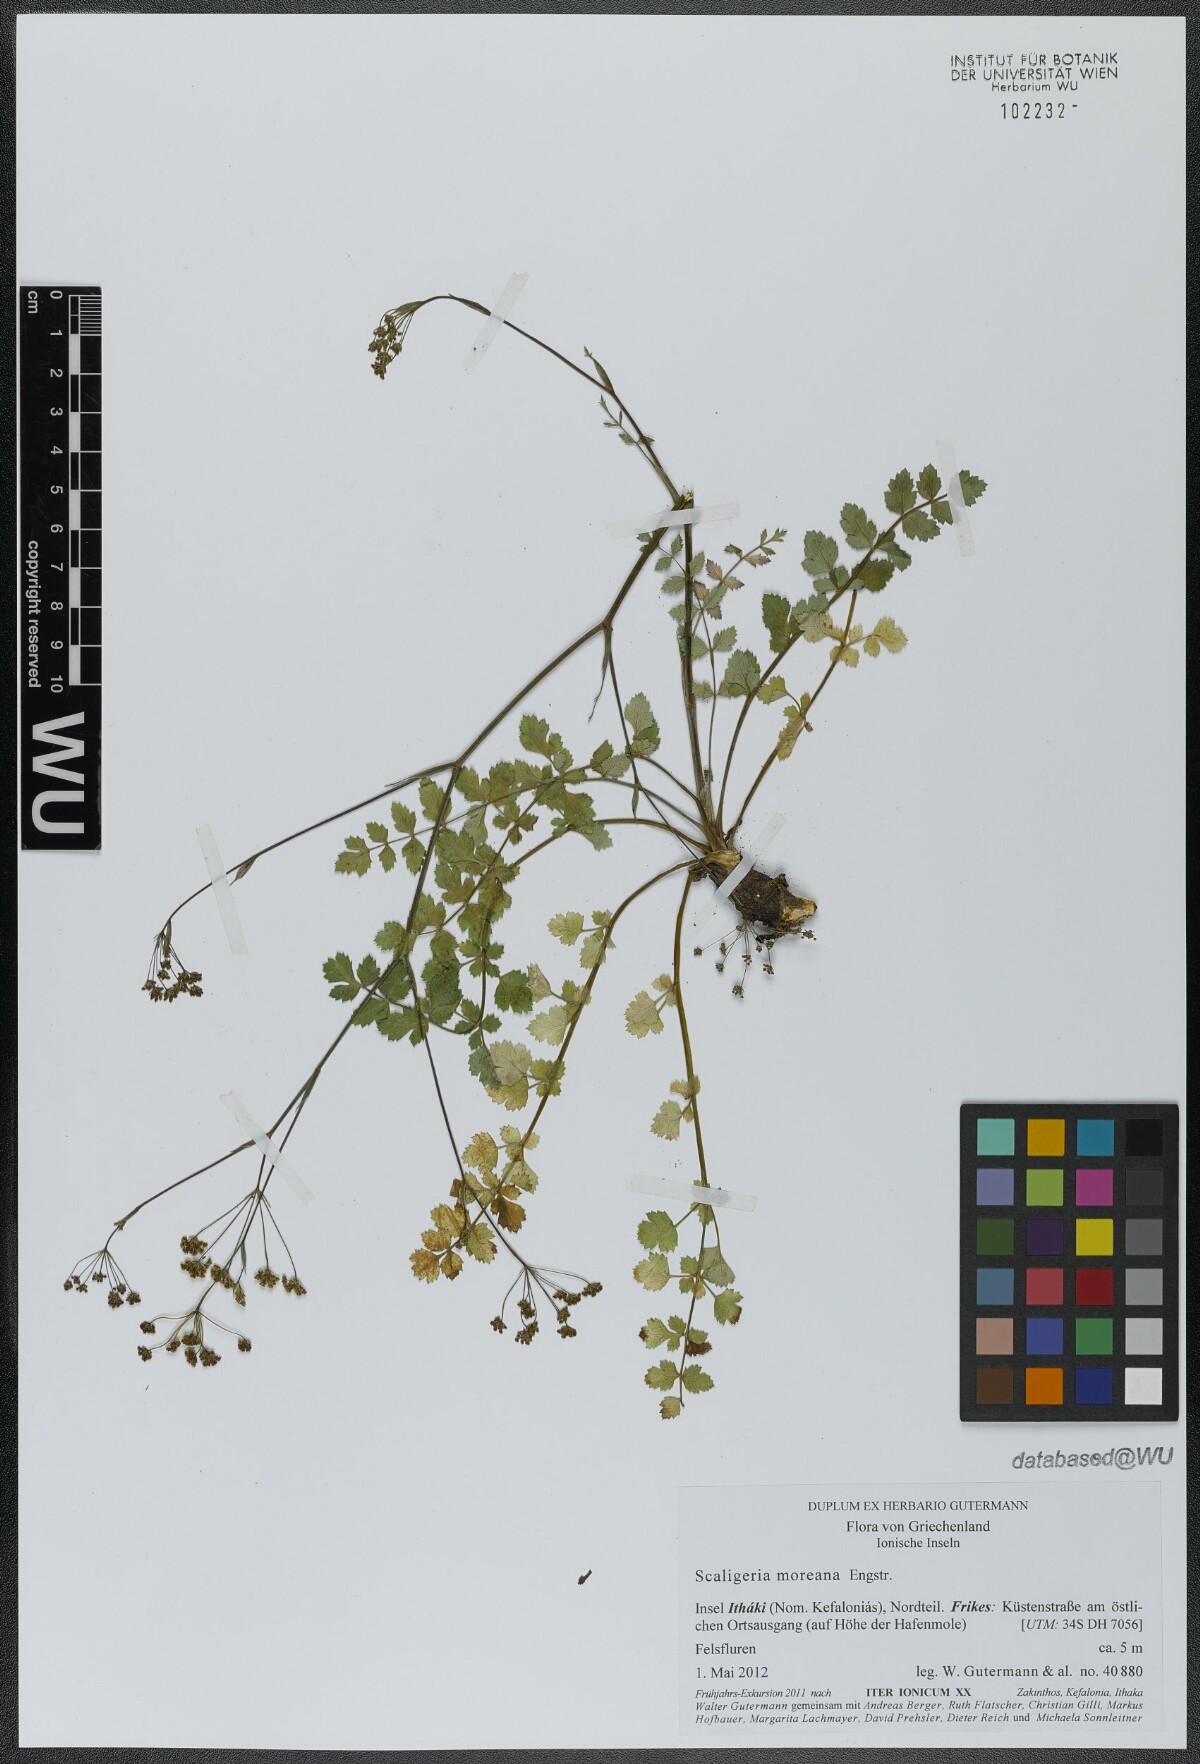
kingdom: Plantae
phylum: Tracheophyta
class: Magnoliopsida
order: Apiales
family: Apiaceae
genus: Scaligeria
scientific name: Scaligeria moreana
